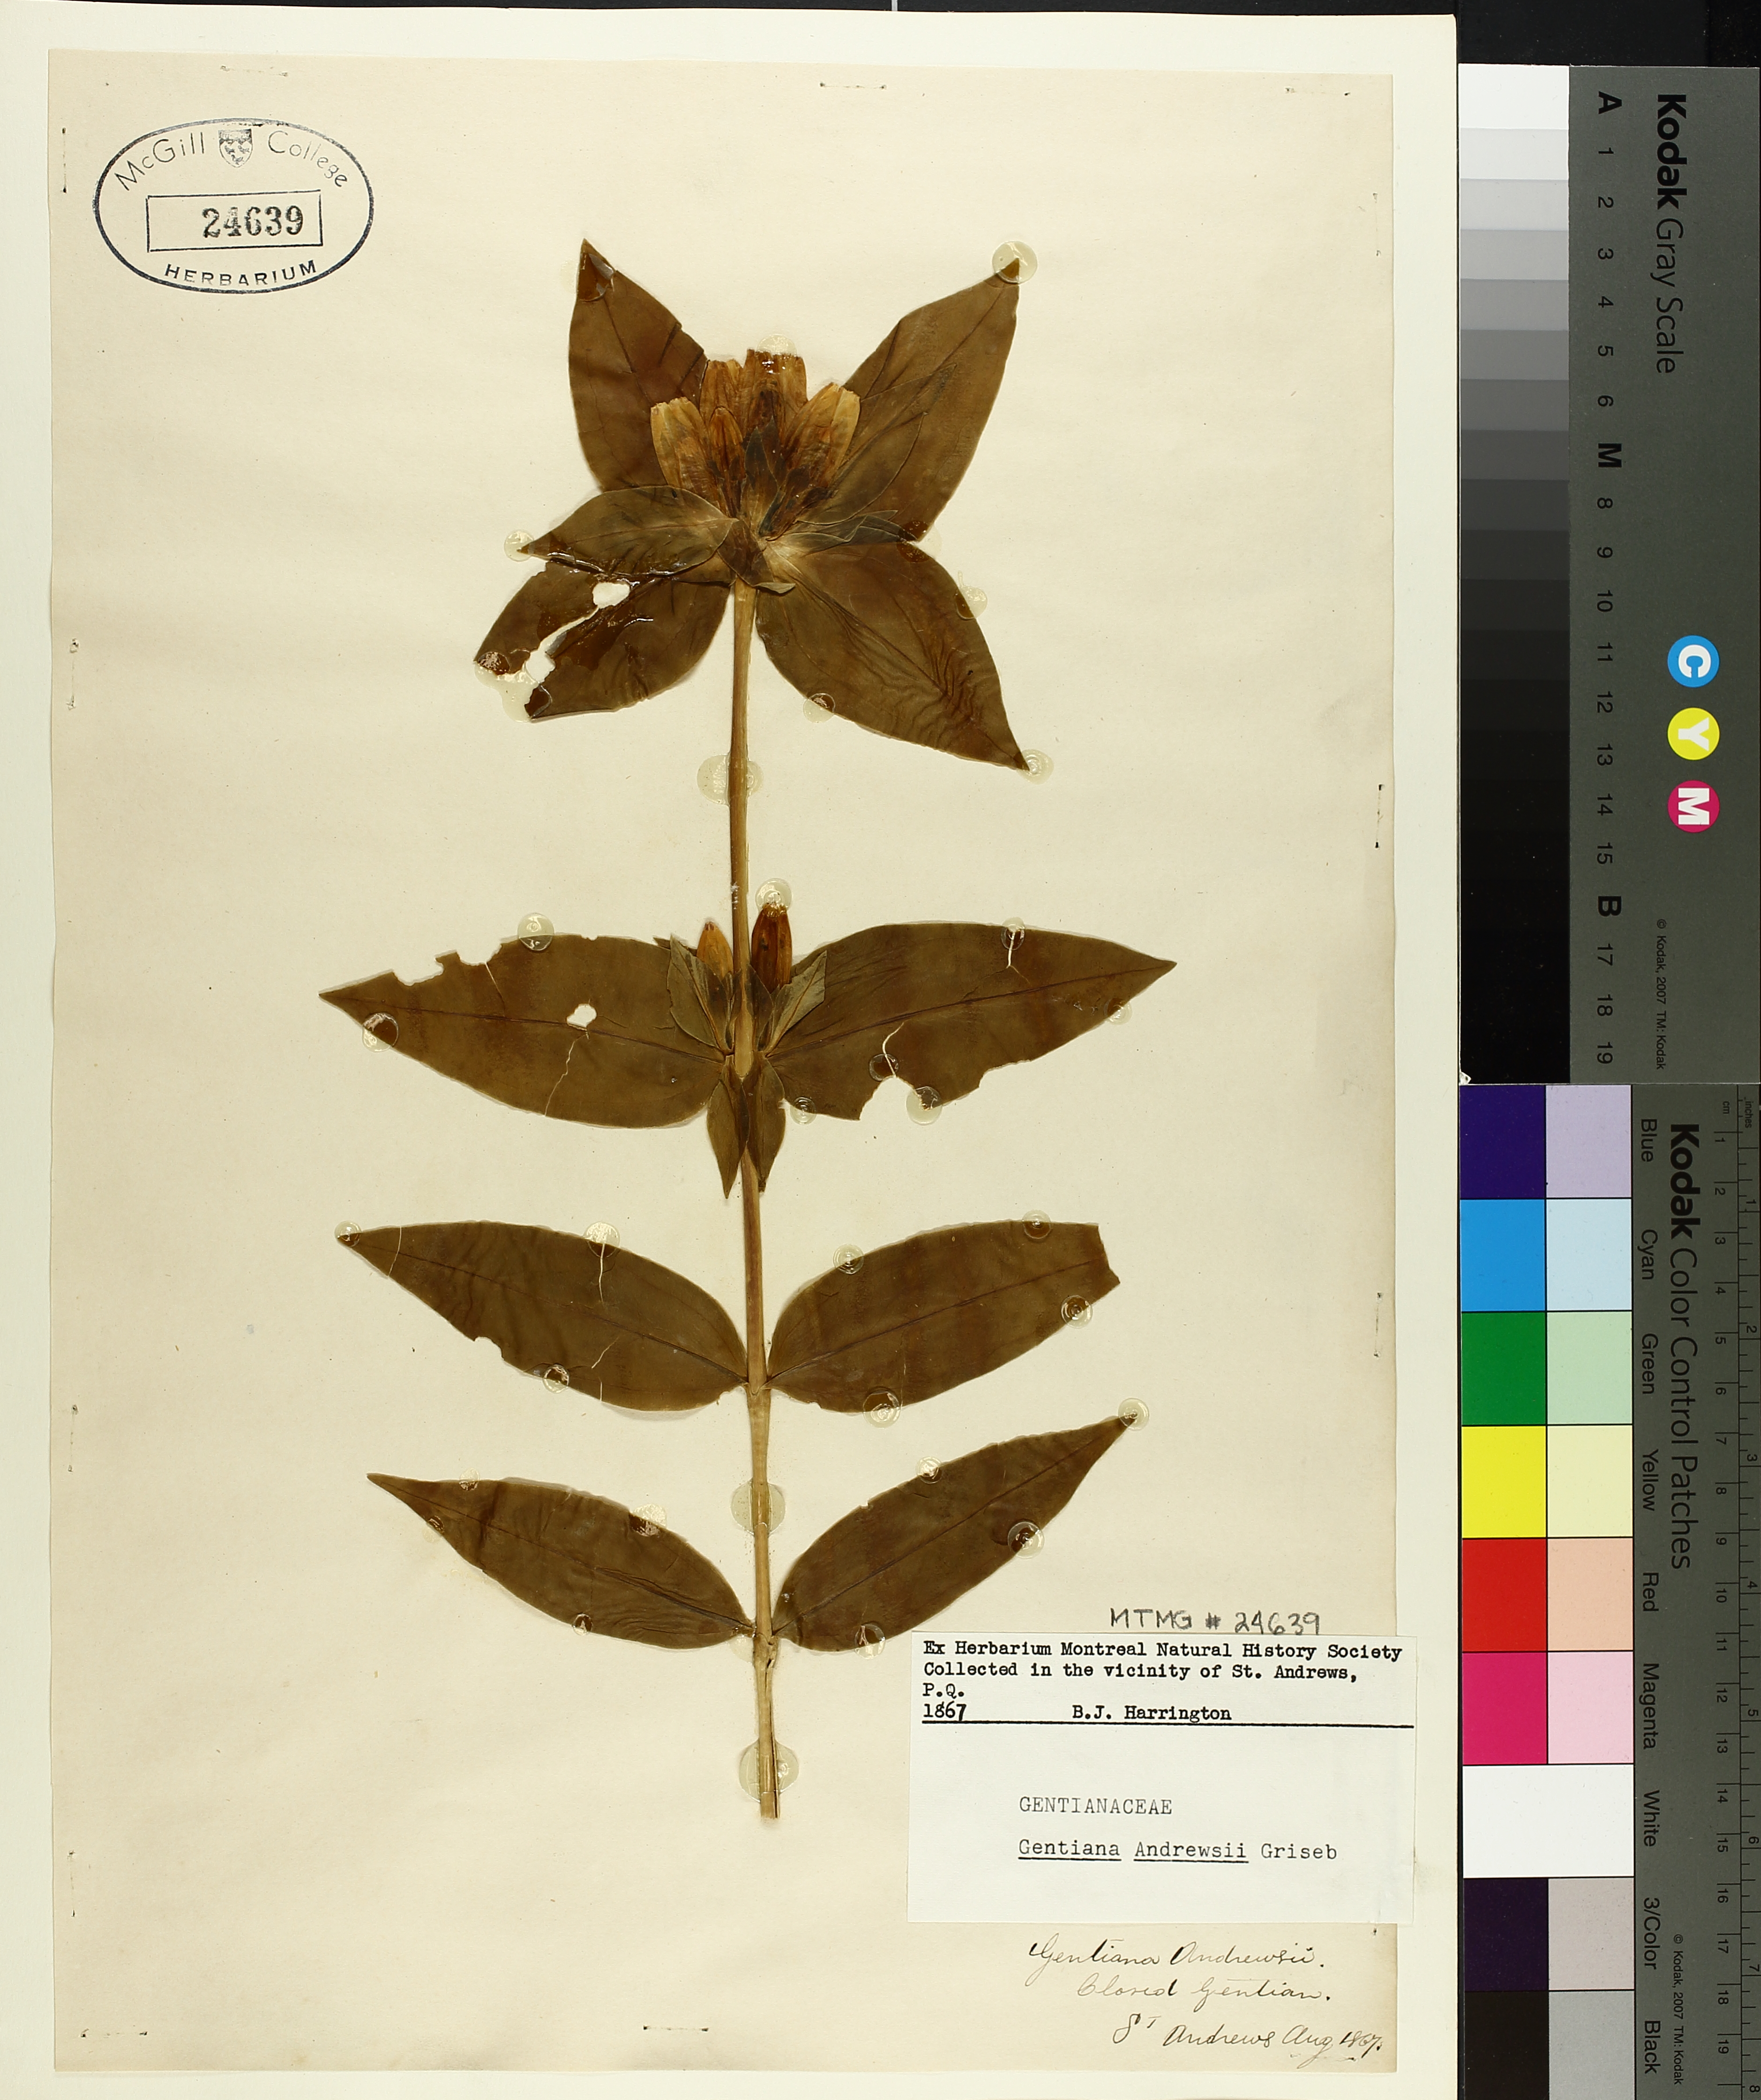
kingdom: Plantae
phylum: Tracheophyta
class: Magnoliopsida
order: Gentianales
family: Gentianaceae
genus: Gentiana
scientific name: Gentiana andrewsii
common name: Bottle gentian
